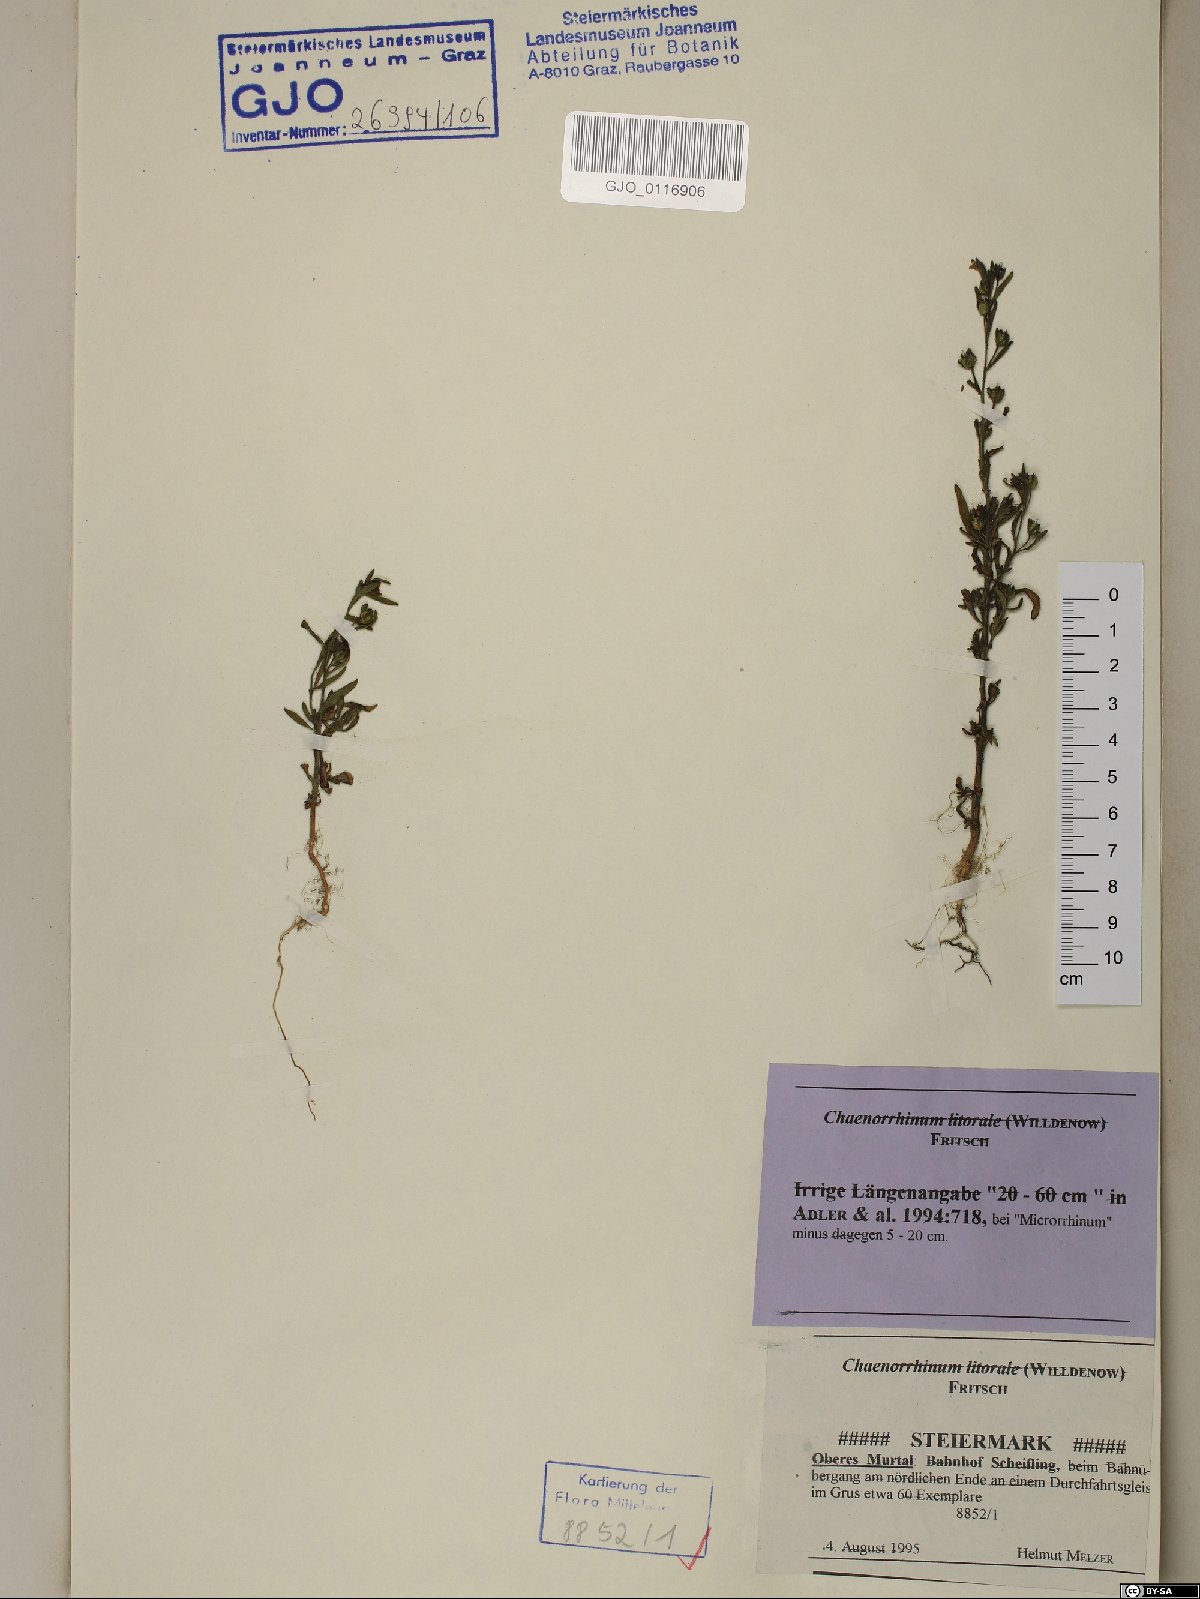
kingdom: Plantae
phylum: Tracheophyta
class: Magnoliopsida
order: Lamiales
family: Plantaginaceae
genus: Chaenorhinum
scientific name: Chaenorhinum litorale
